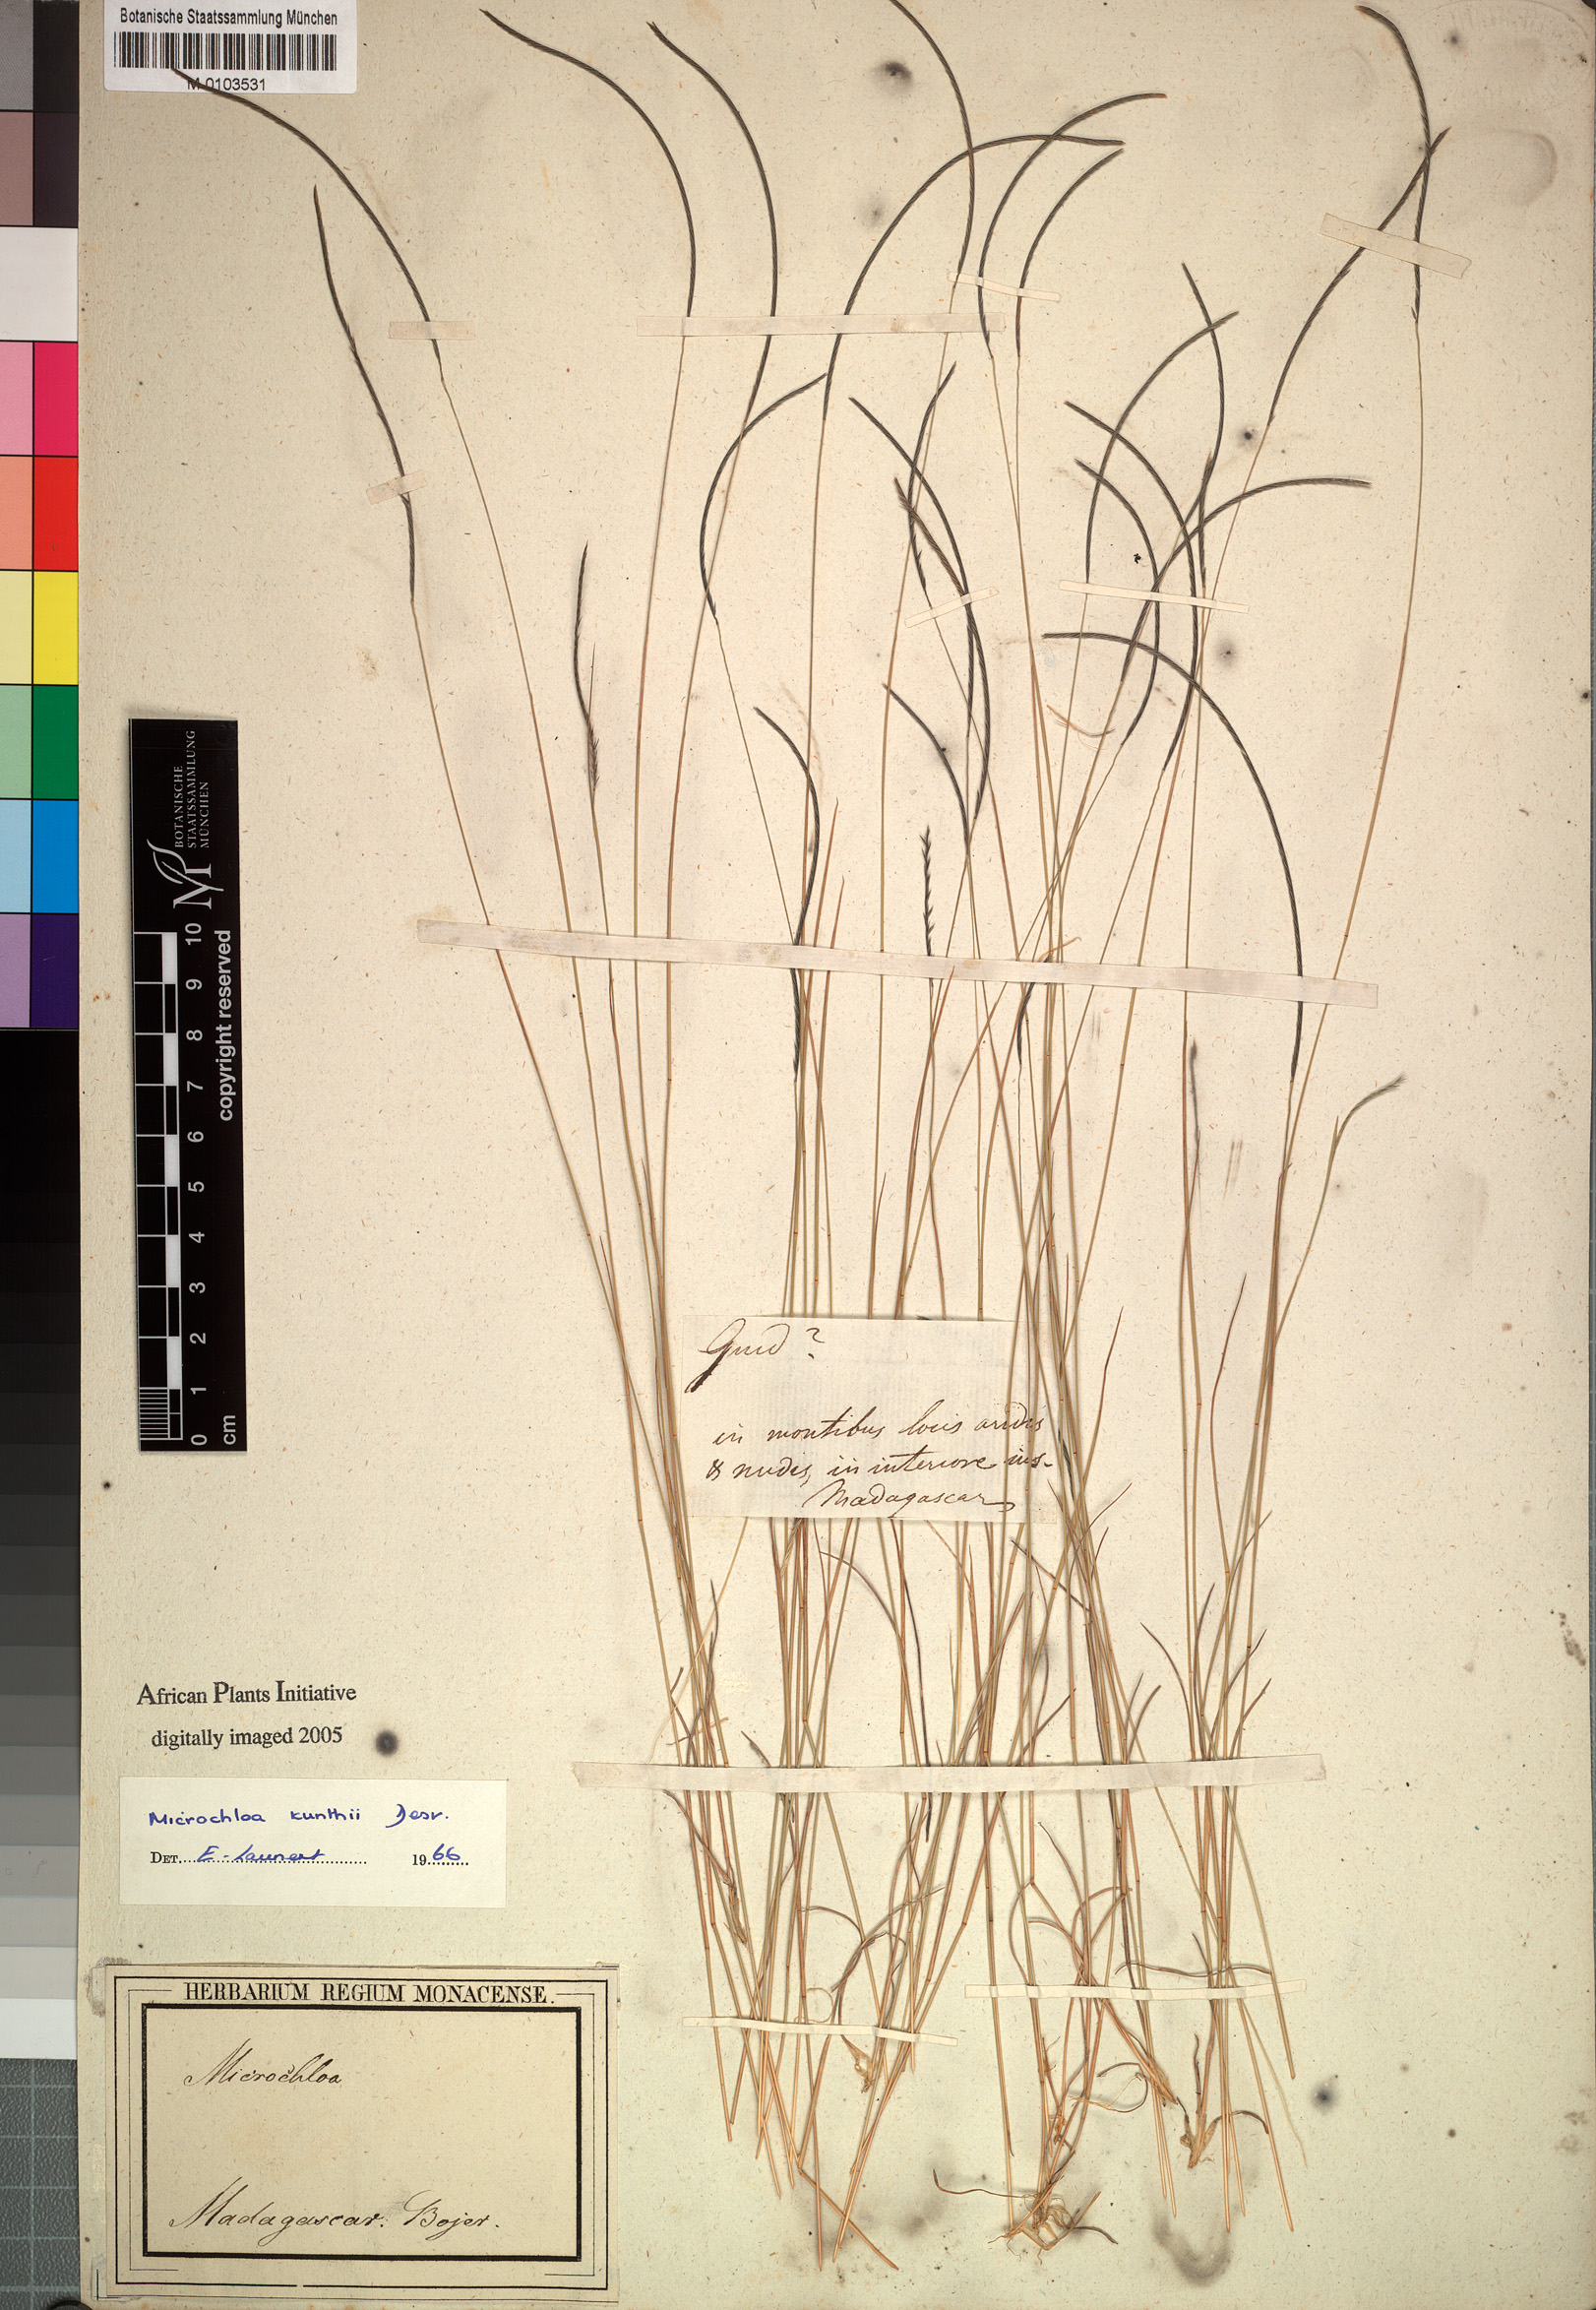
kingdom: Plantae
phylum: Tracheophyta
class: Liliopsida
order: Poales
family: Poaceae
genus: Microchloa
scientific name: Microchloa kunthii
